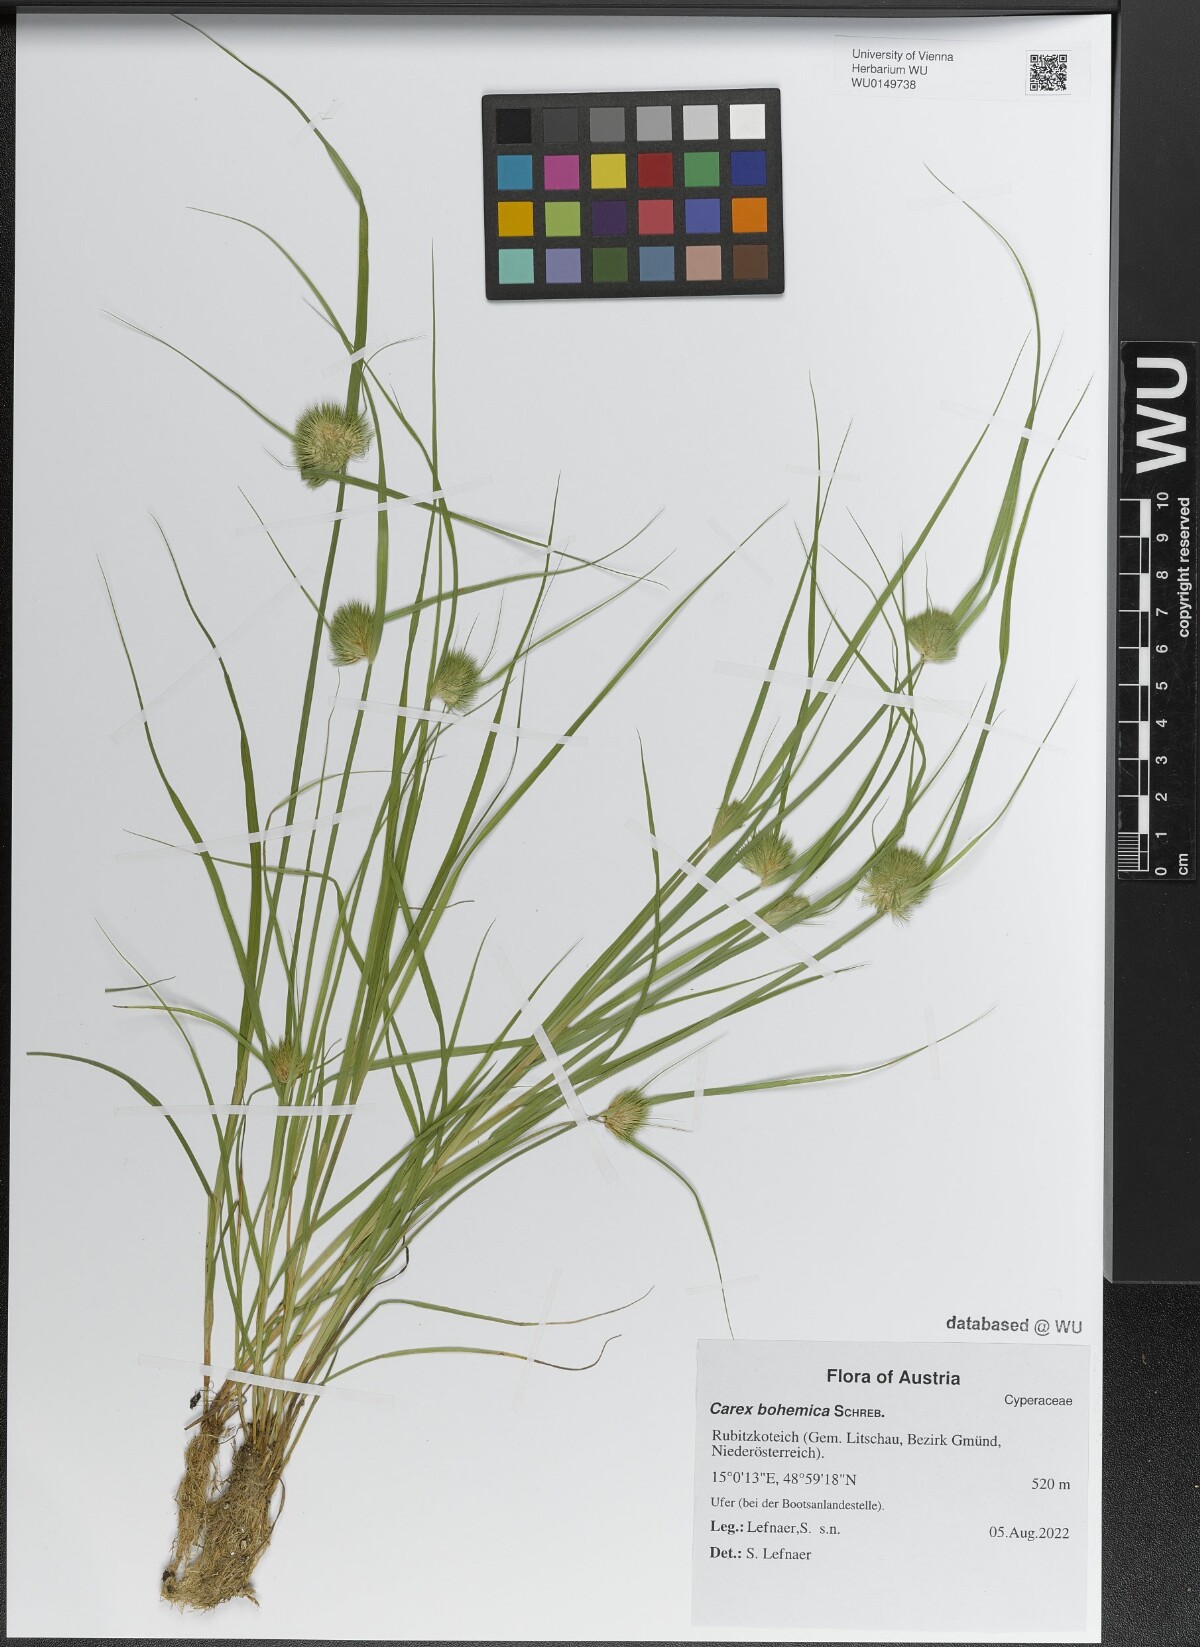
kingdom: Plantae
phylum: Tracheophyta
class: Liliopsida
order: Poales
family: Cyperaceae
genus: Carex
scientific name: Carex bohemica
